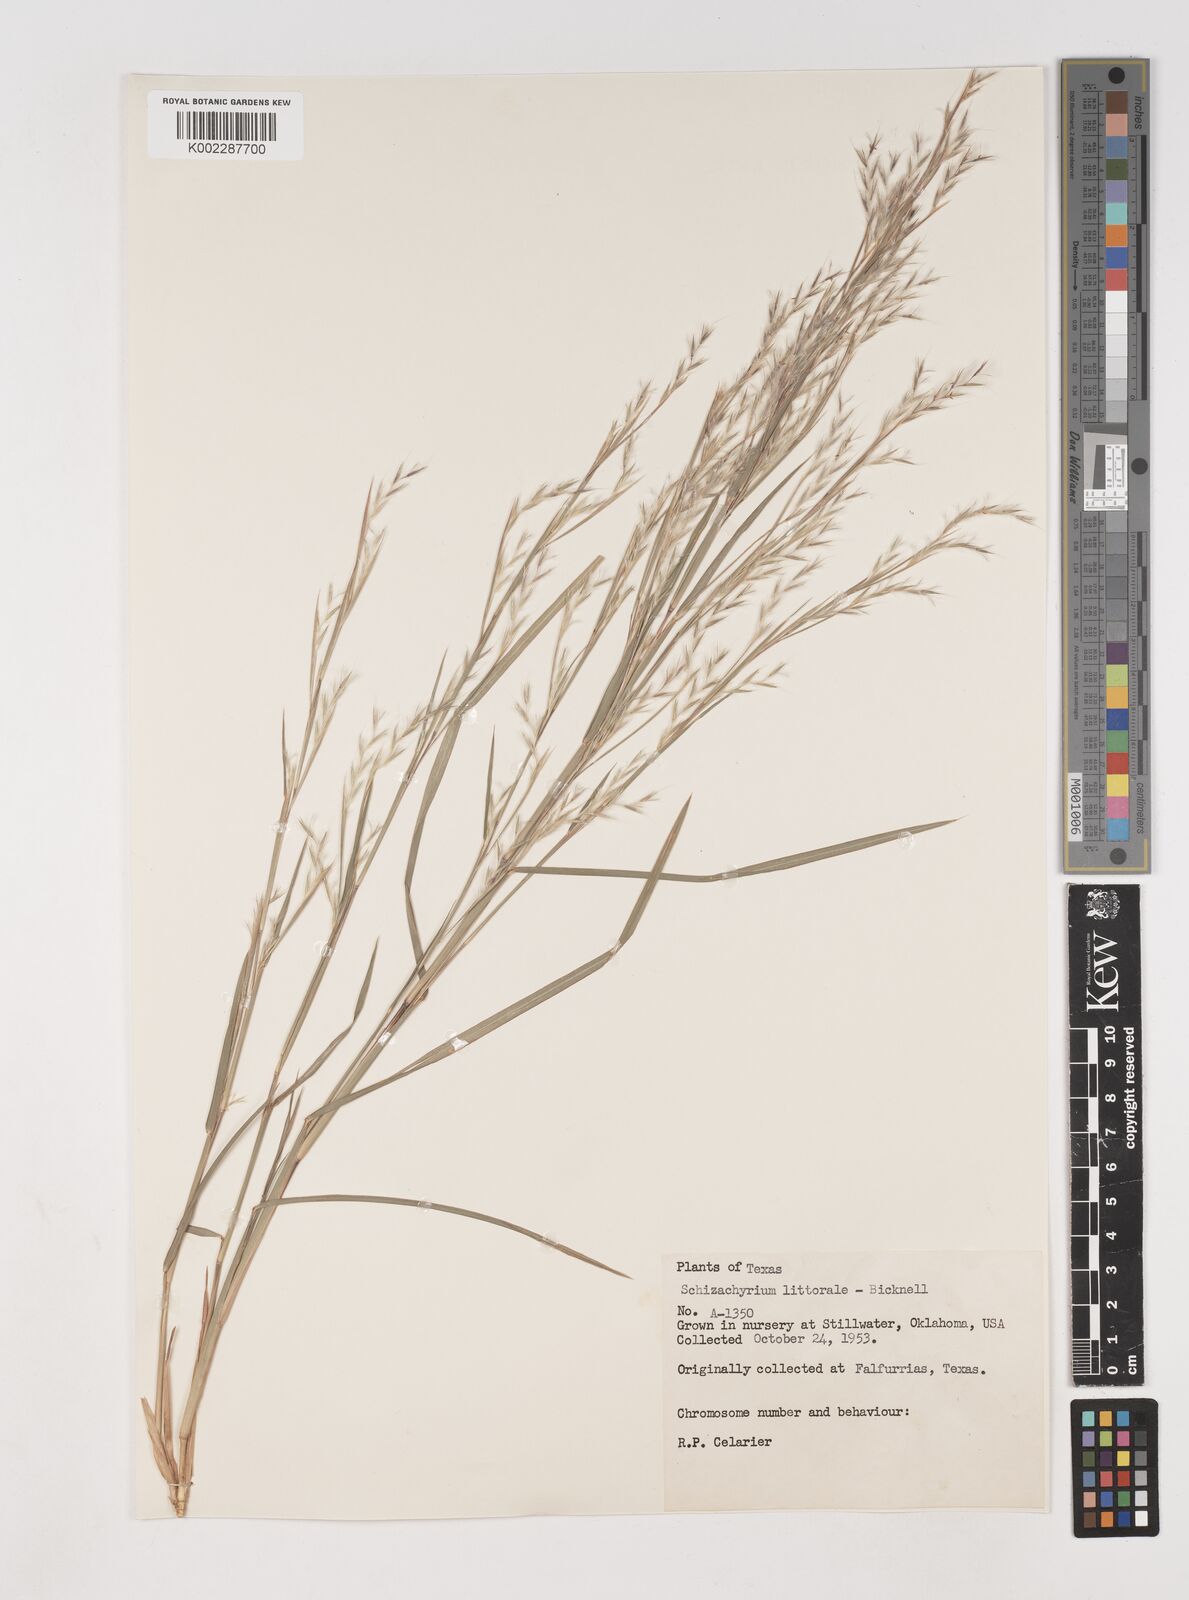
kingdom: Plantae
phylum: Tracheophyta
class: Liliopsida
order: Poales
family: Poaceae
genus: Schizachyrium
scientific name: Schizachyrium scoparium
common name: Little bluestem
